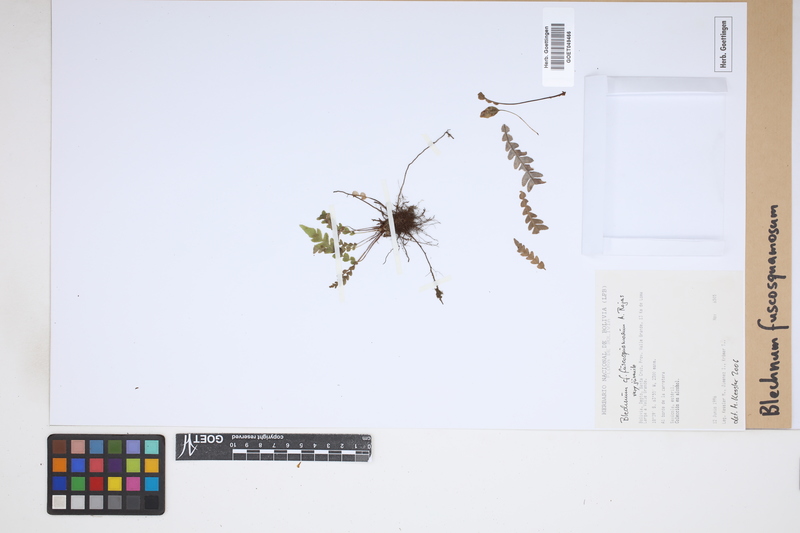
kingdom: Plantae
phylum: Tracheophyta
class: Polypodiopsida
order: Polypodiales
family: Blechnaceae
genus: Lomaridium
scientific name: Lomaridium fuscosquamosum
